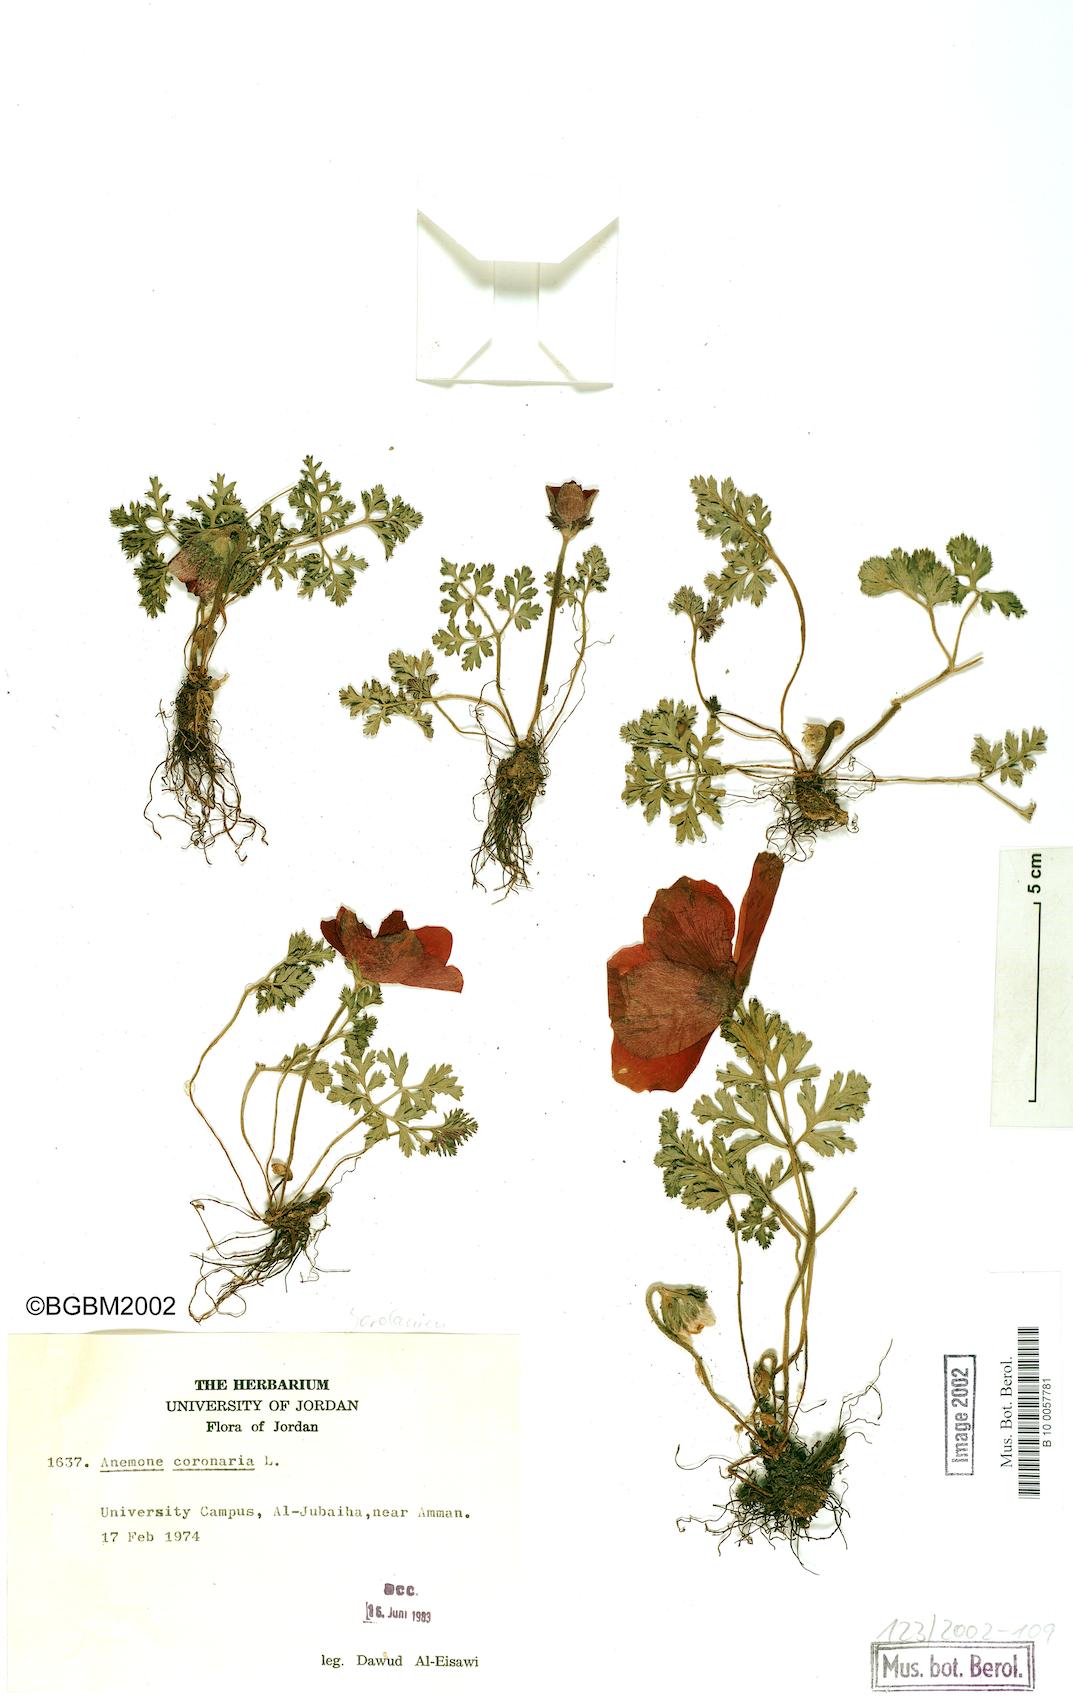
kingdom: Plantae
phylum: Tracheophyta
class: Magnoliopsida
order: Ranunculales
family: Ranunculaceae
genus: Anemone
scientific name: Anemone coronaria
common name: Poppy anemone
